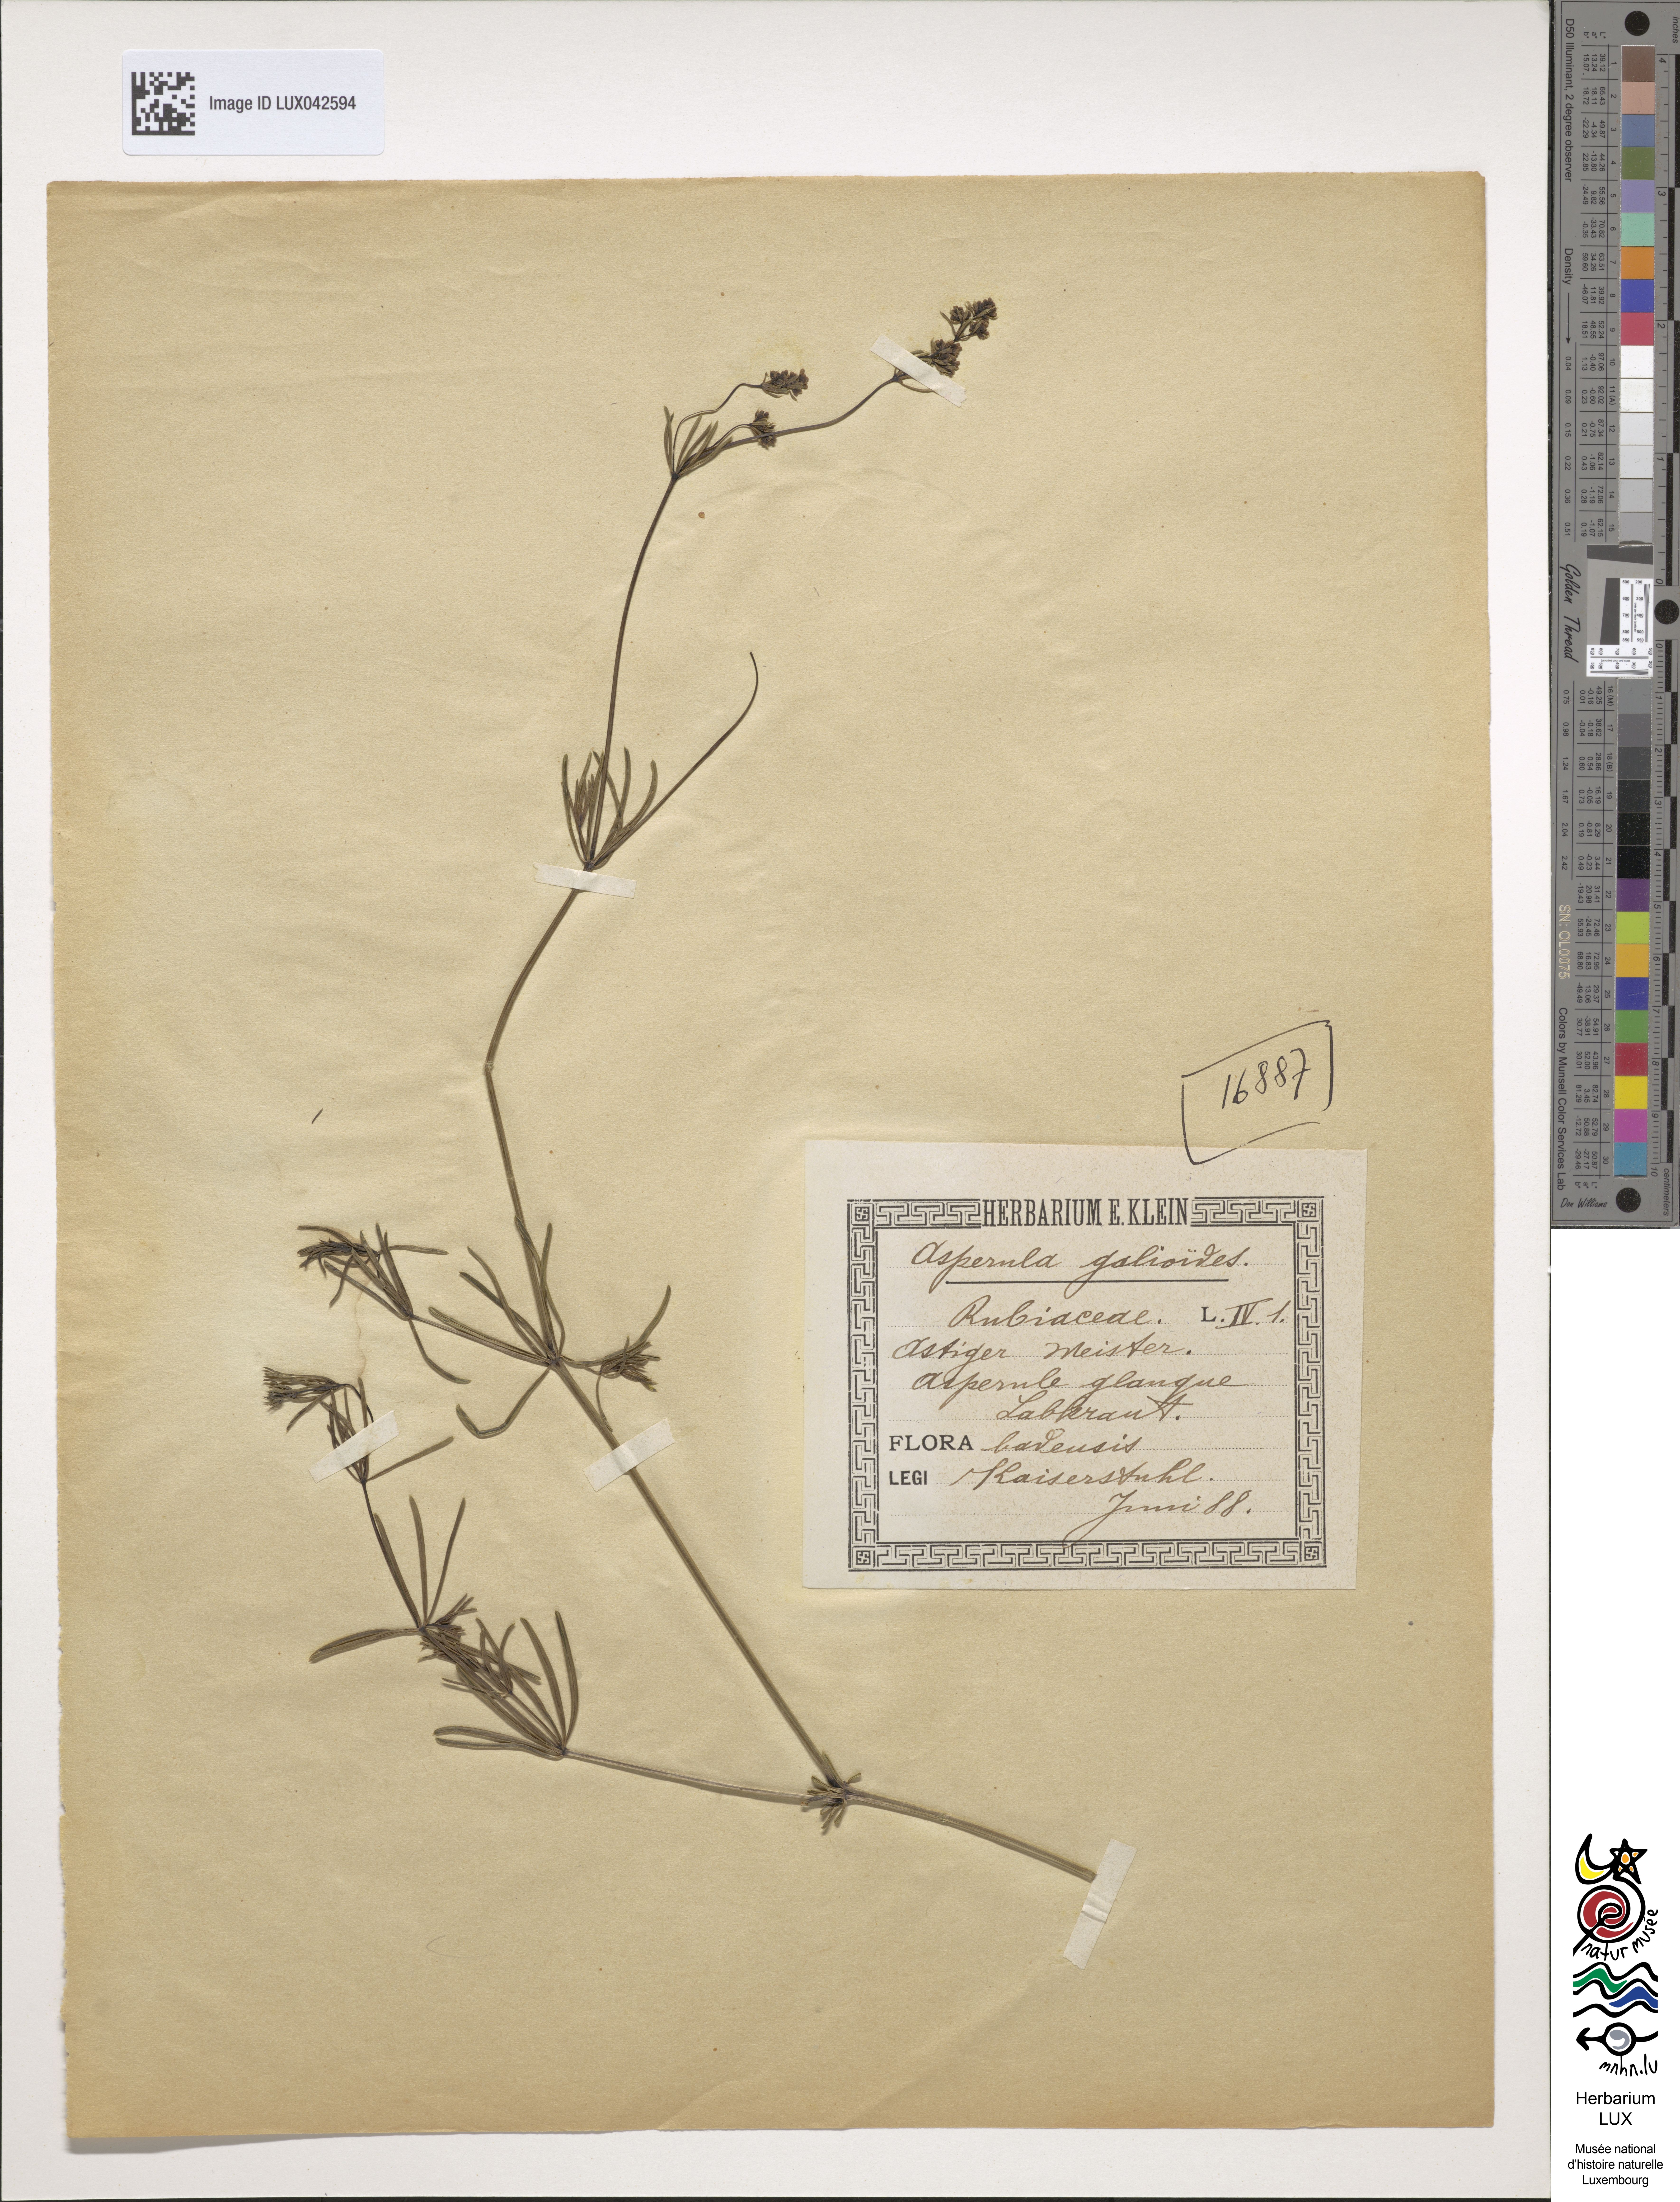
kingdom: Plantae
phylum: Tracheophyta
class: Magnoliopsida
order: Gentianales
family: Rubiaceae
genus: Galium
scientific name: Galium glaucum
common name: Waxy bedstraw
